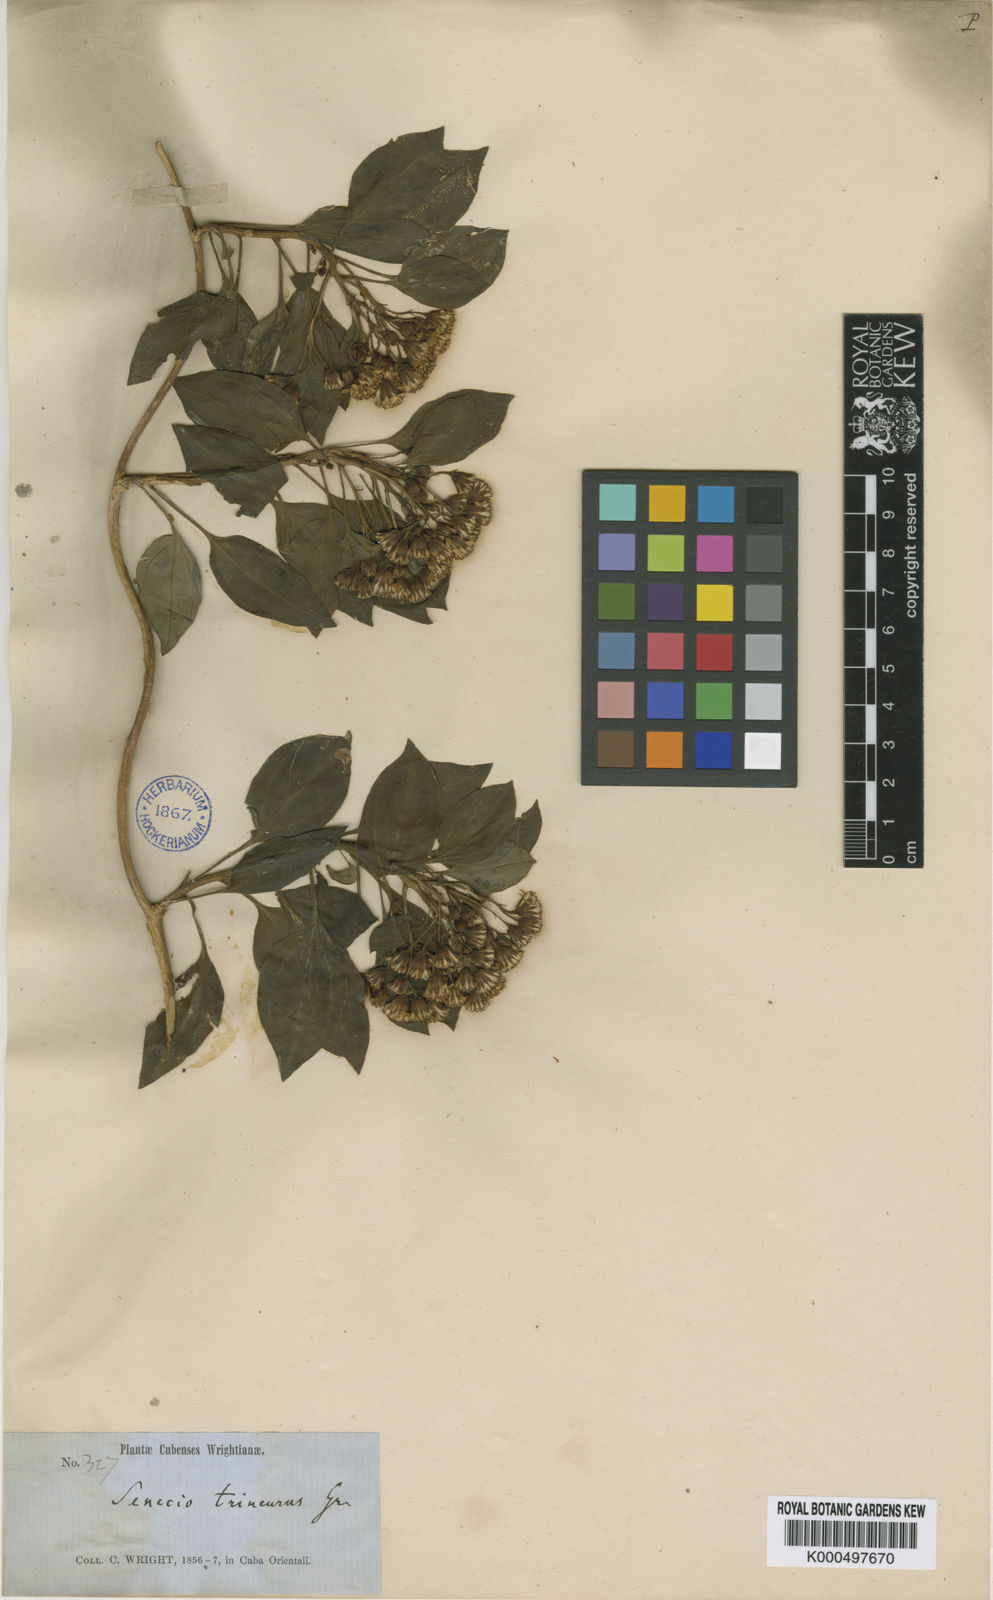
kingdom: Plantae
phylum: Tracheophyta
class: Magnoliopsida
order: Asterales
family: Asteraceae
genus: Leonis
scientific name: Leonis trineura
